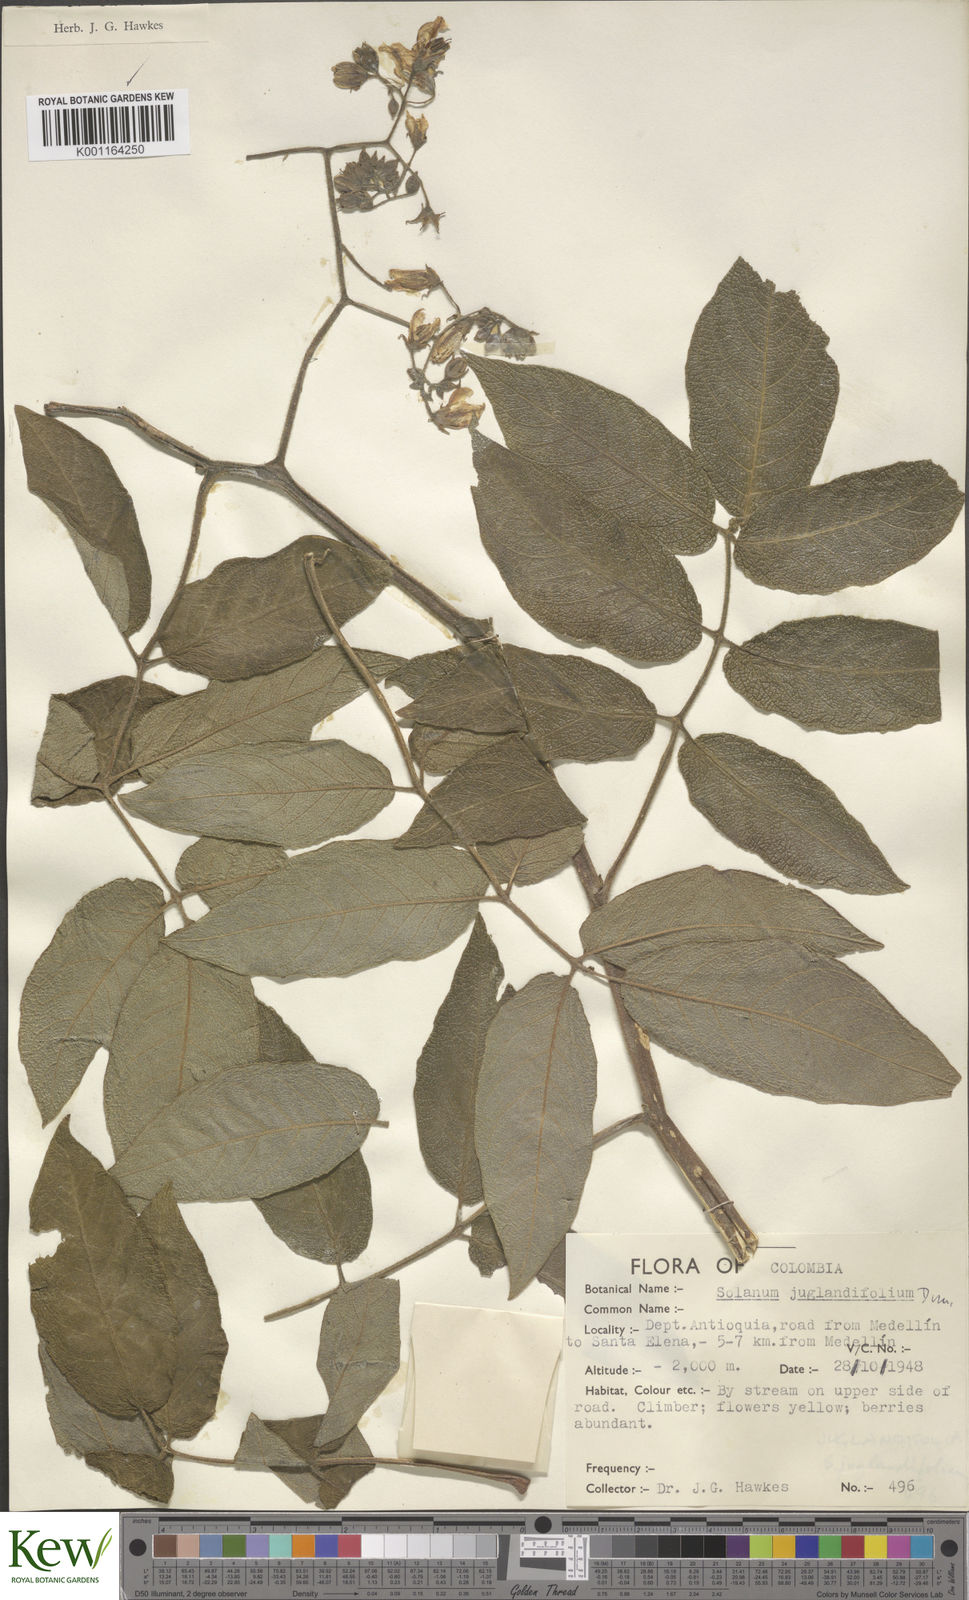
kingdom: Plantae
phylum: Tracheophyta
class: Magnoliopsida
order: Solanales
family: Solanaceae
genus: Solanum
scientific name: Solanum juglandifolium
